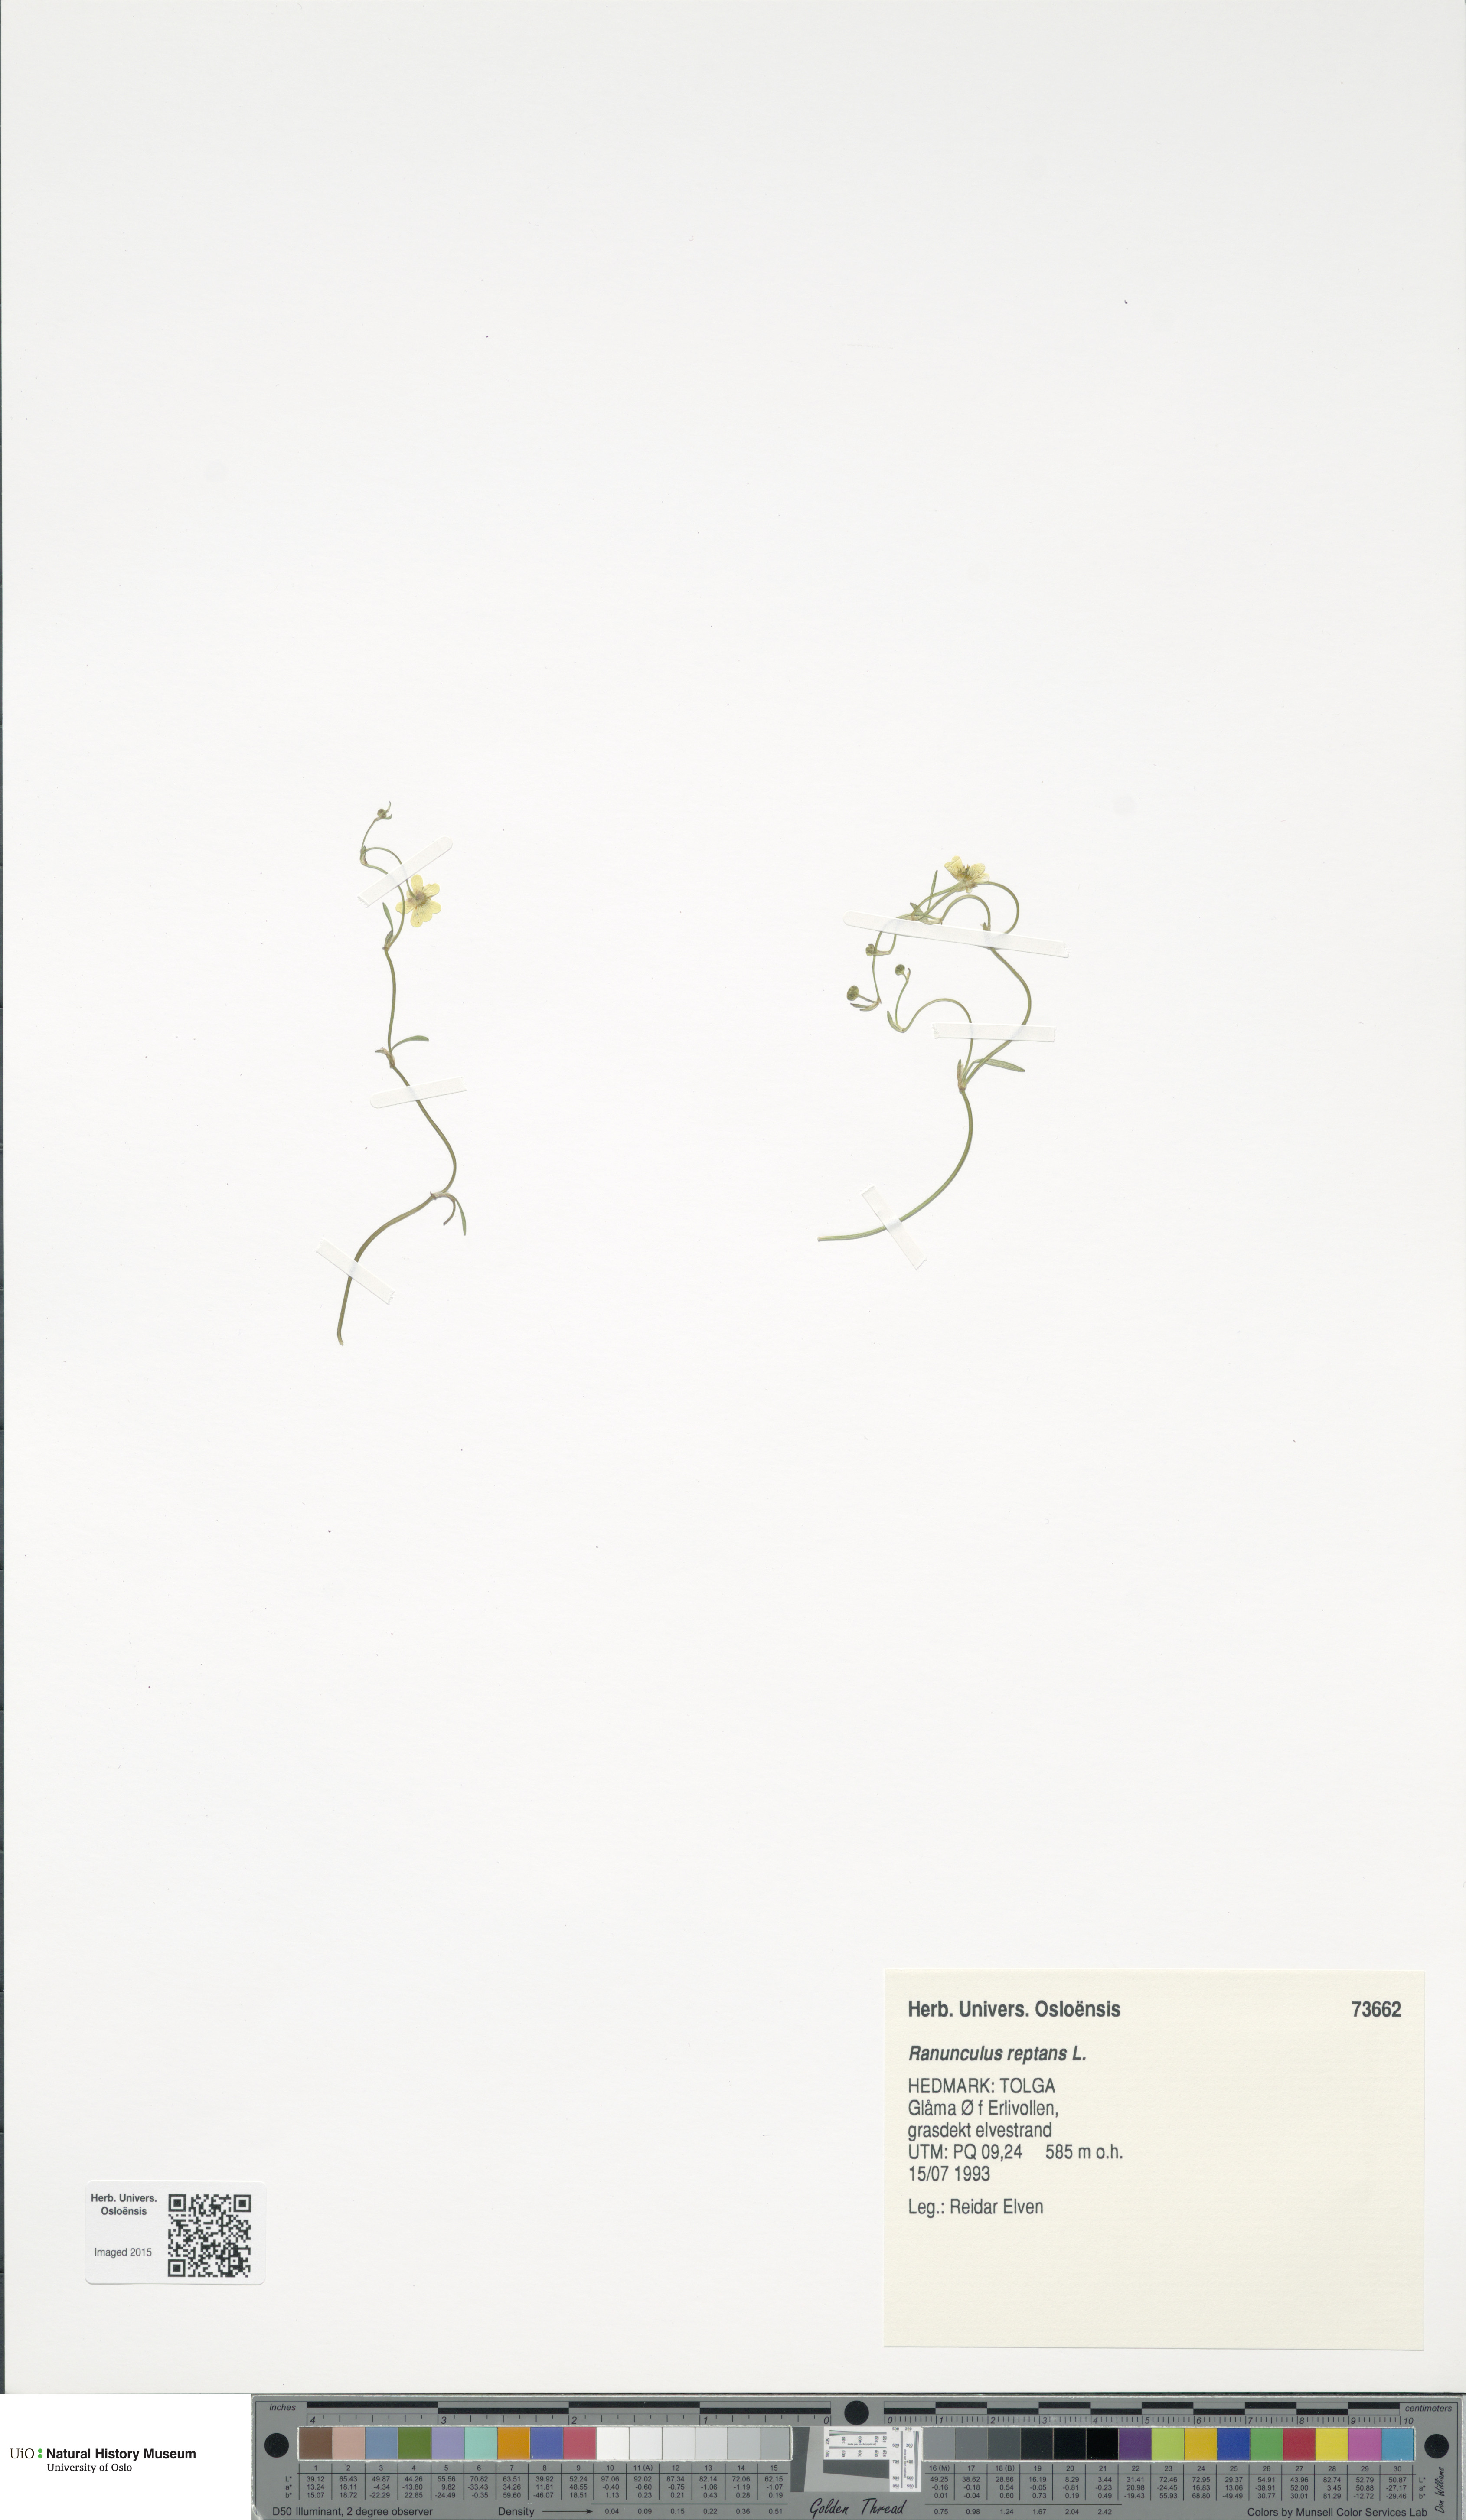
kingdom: Plantae
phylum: Tracheophyta
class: Magnoliopsida
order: Ranunculales
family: Ranunculaceae
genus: Ranunculus
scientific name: Ranunculus reptans
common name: Creeping spearwort
